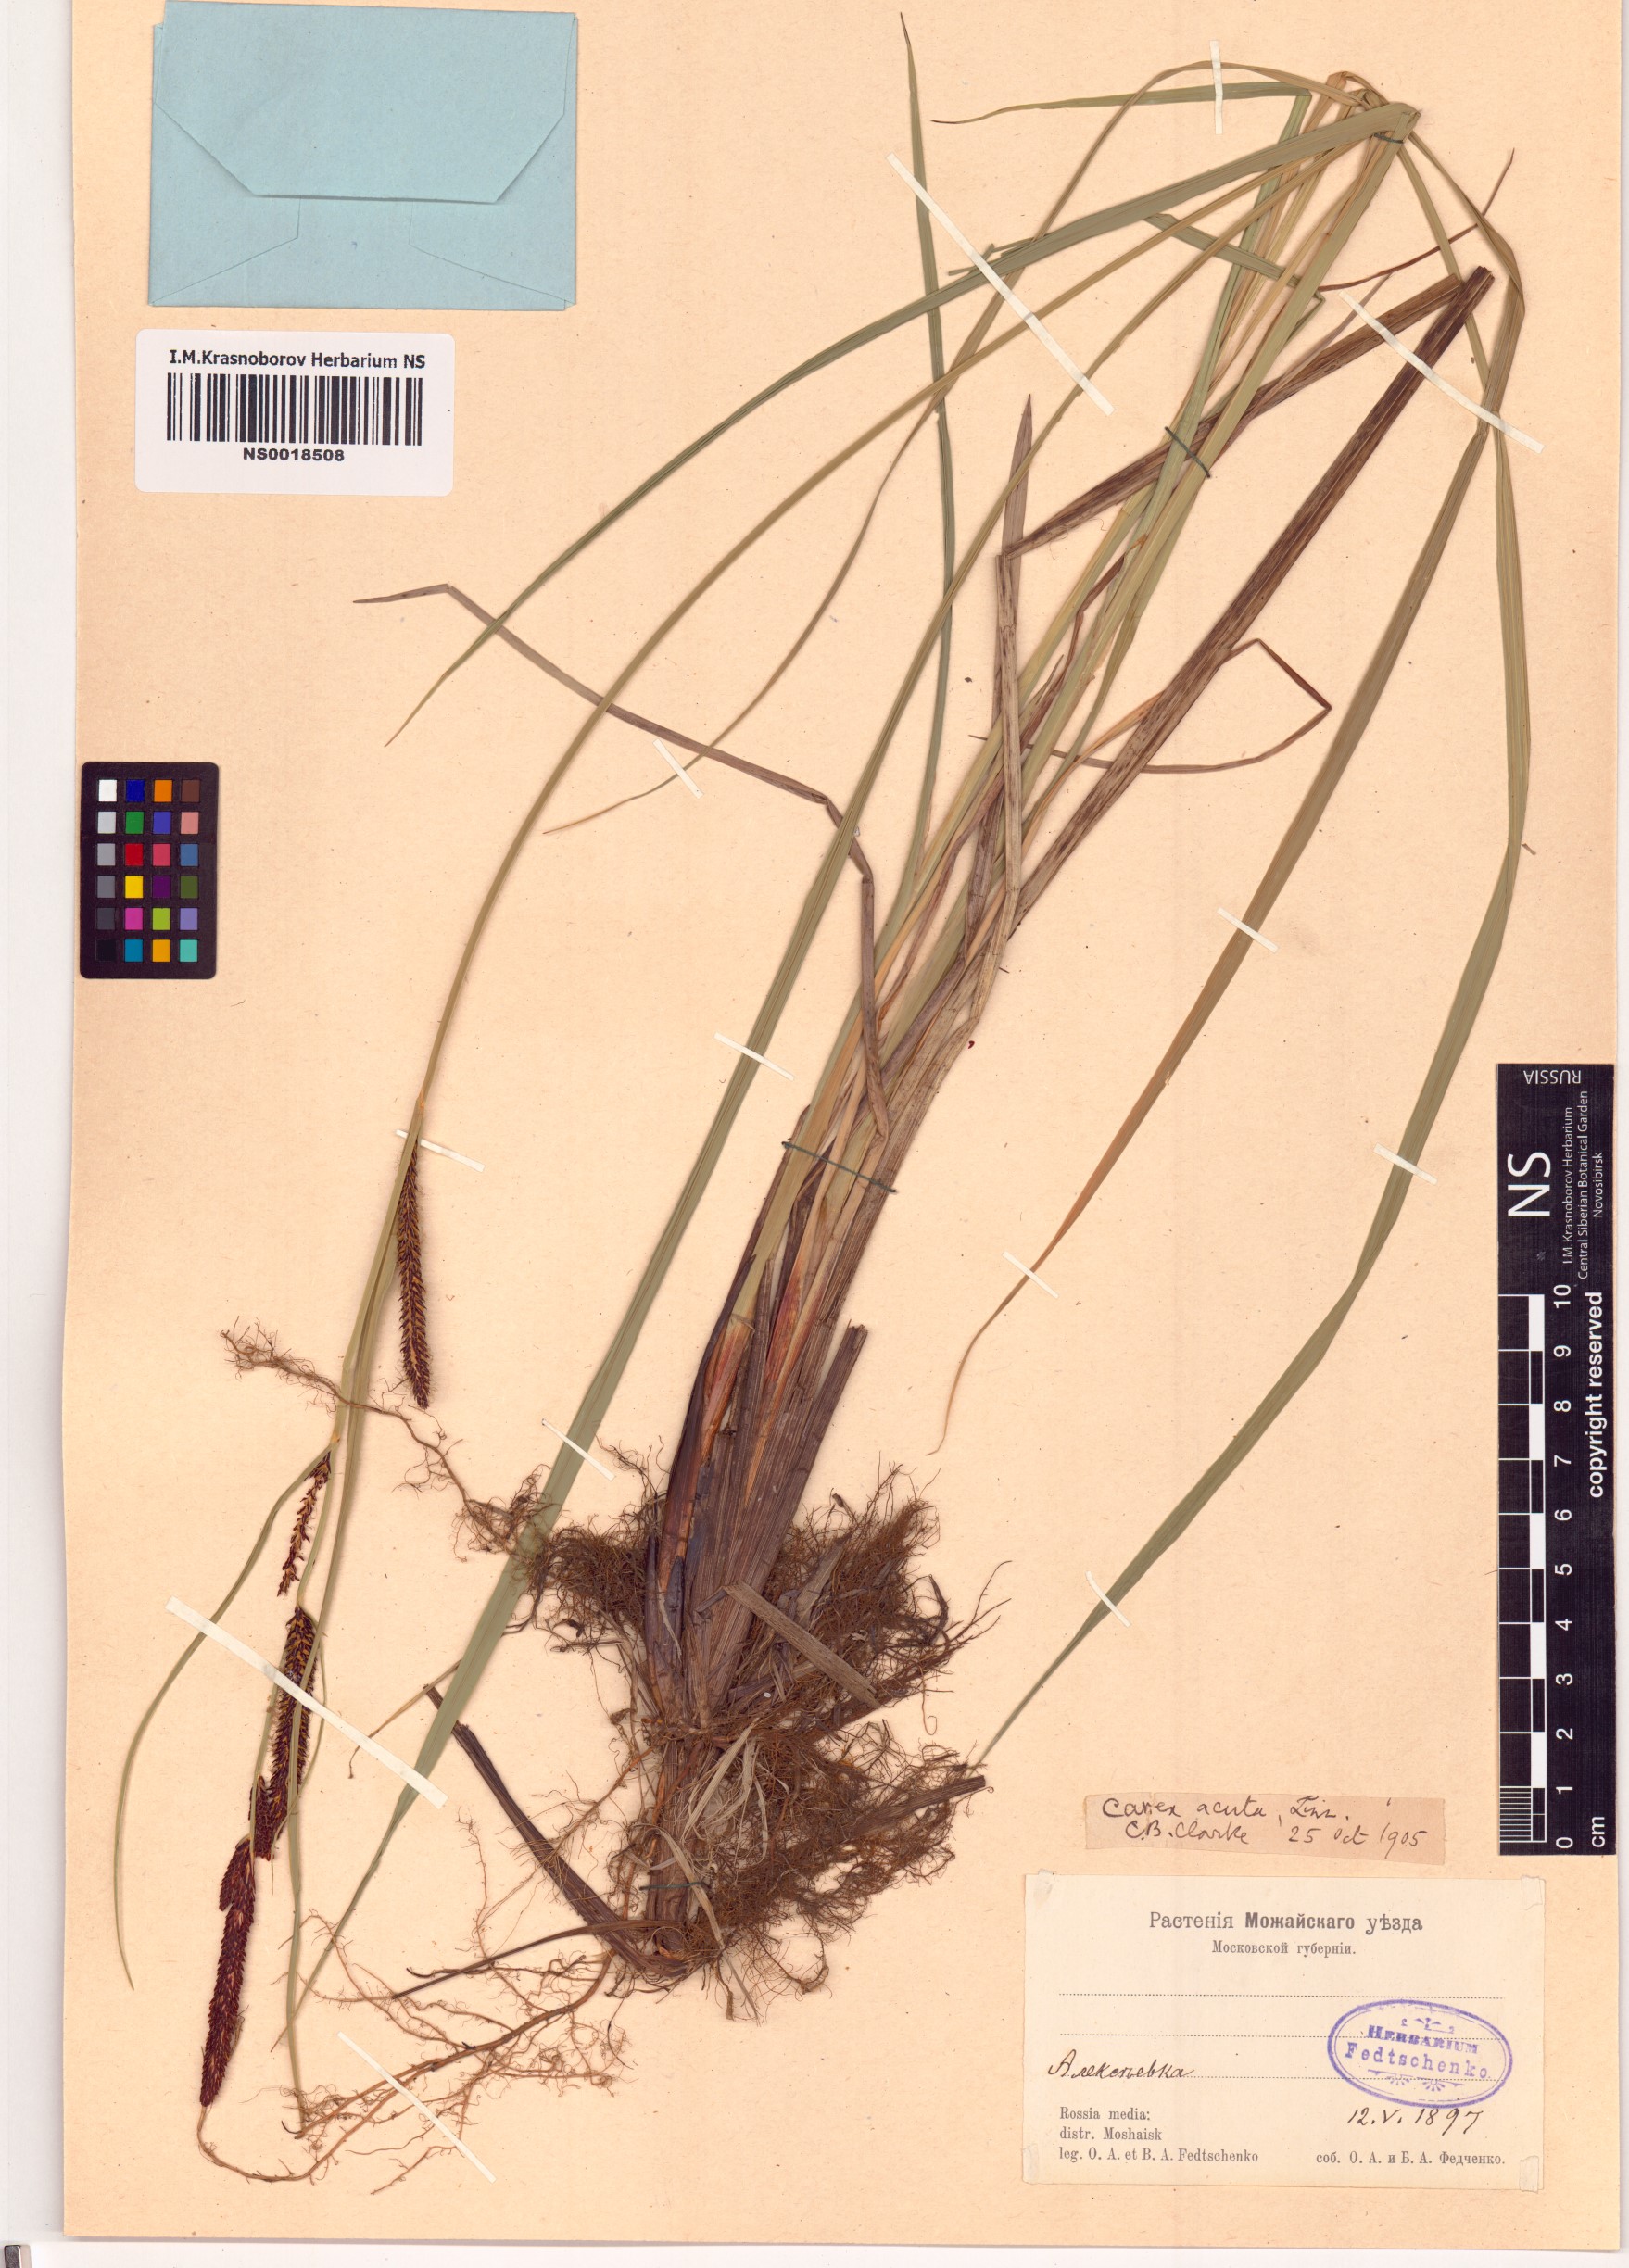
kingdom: Plantae
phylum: Tracheophyta
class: Liliopsida
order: Poales
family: Cyperaceae
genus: Carex
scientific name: Carex acuta
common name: Slender tufted-sedge
